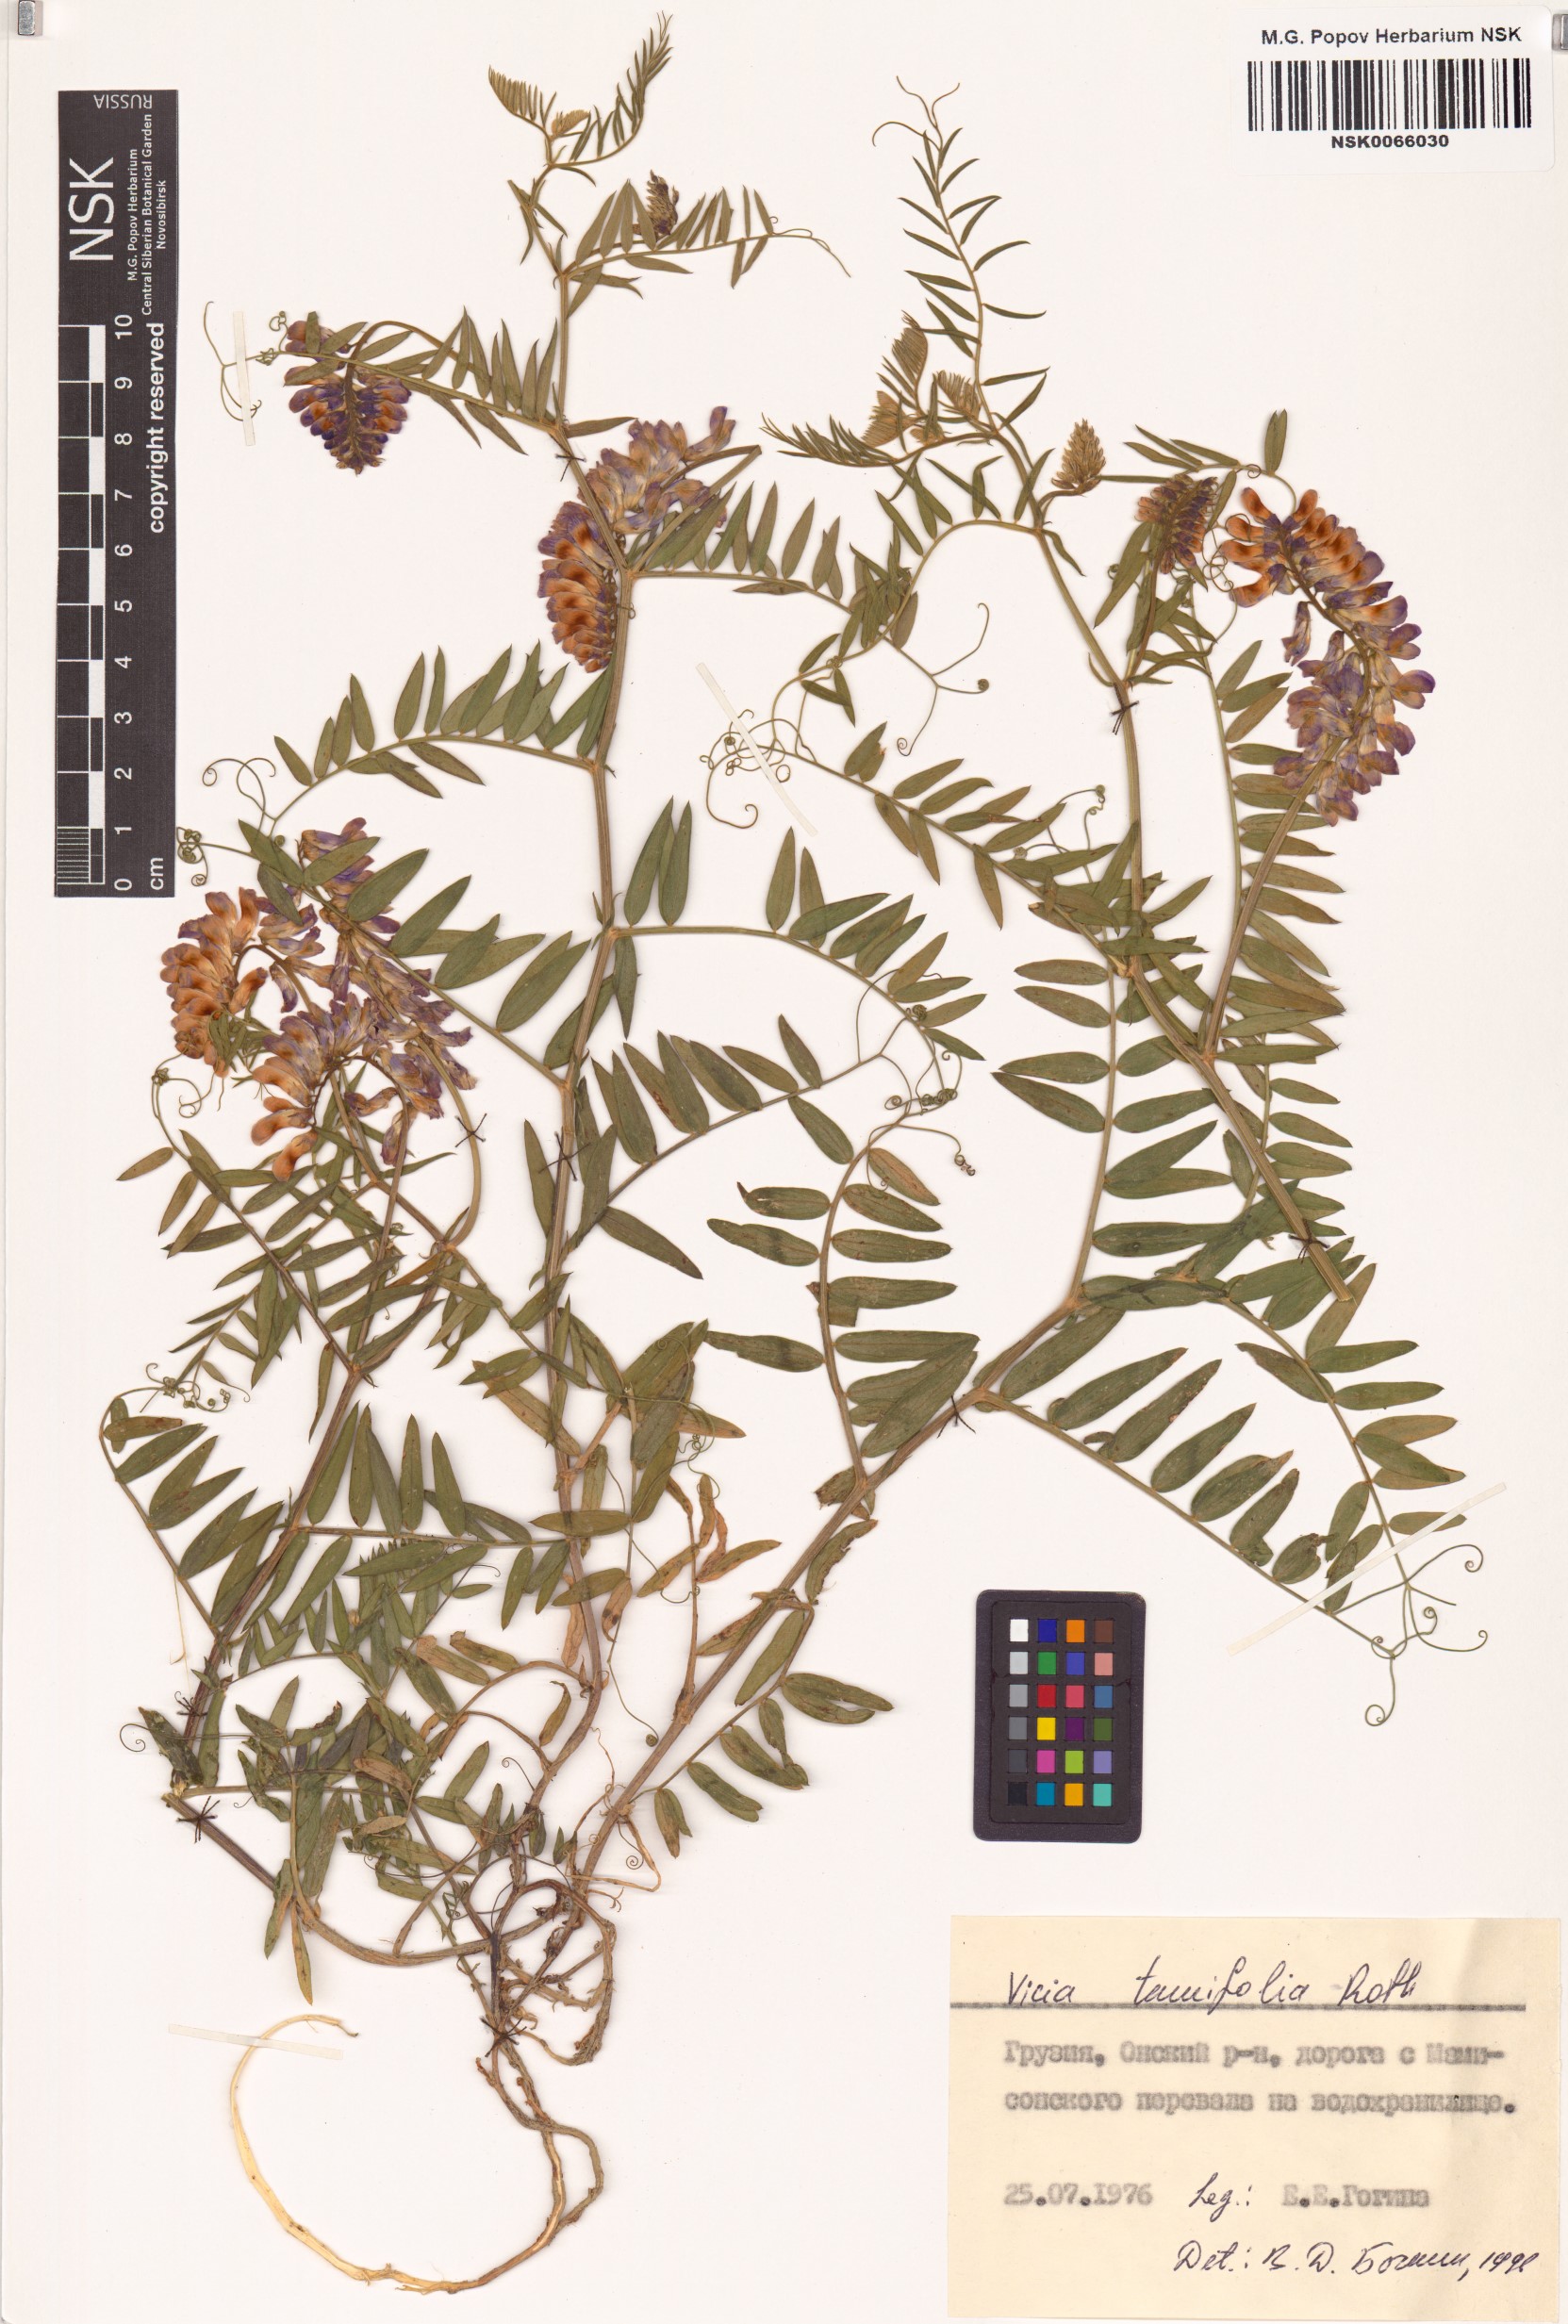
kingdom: Plantae
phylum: Tracheophyta
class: Magnoliopsida
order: Fabales
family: Fabaceae
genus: Vicia
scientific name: Vicia tenuifolia
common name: Fine-leaved vetch
